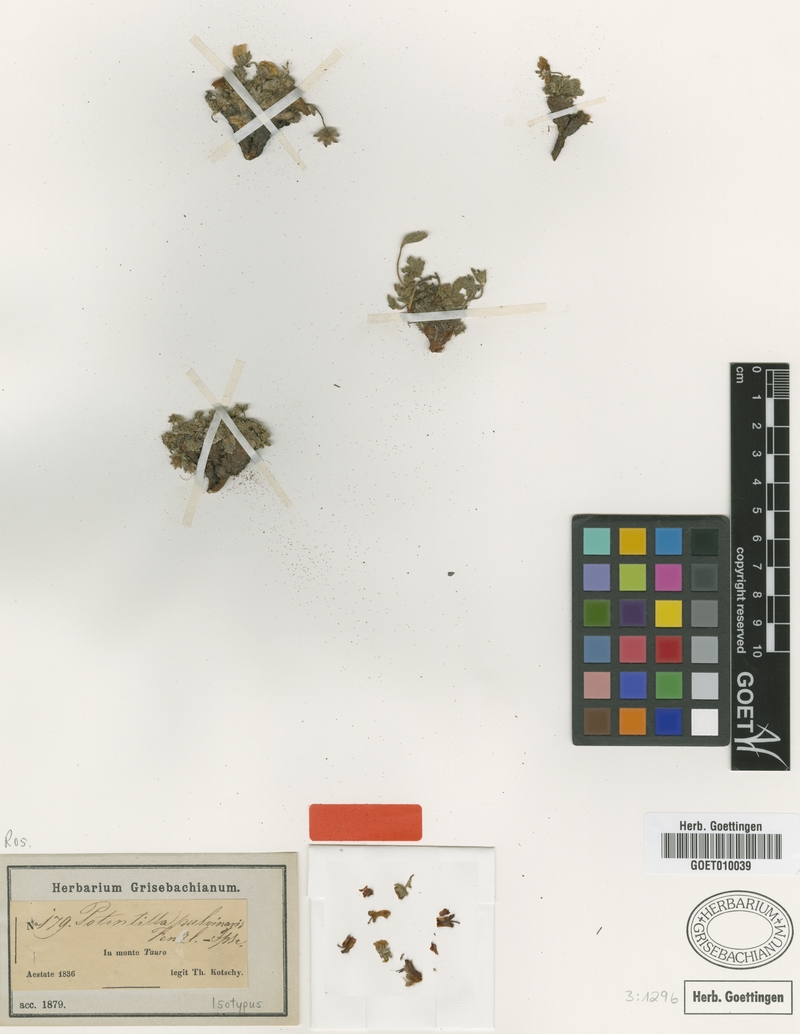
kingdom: Plantae
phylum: Tracheophyta
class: Magnoliopsida
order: Rosales
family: Rosaceae
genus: Potentilla
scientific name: Potentilla pulvinaris
